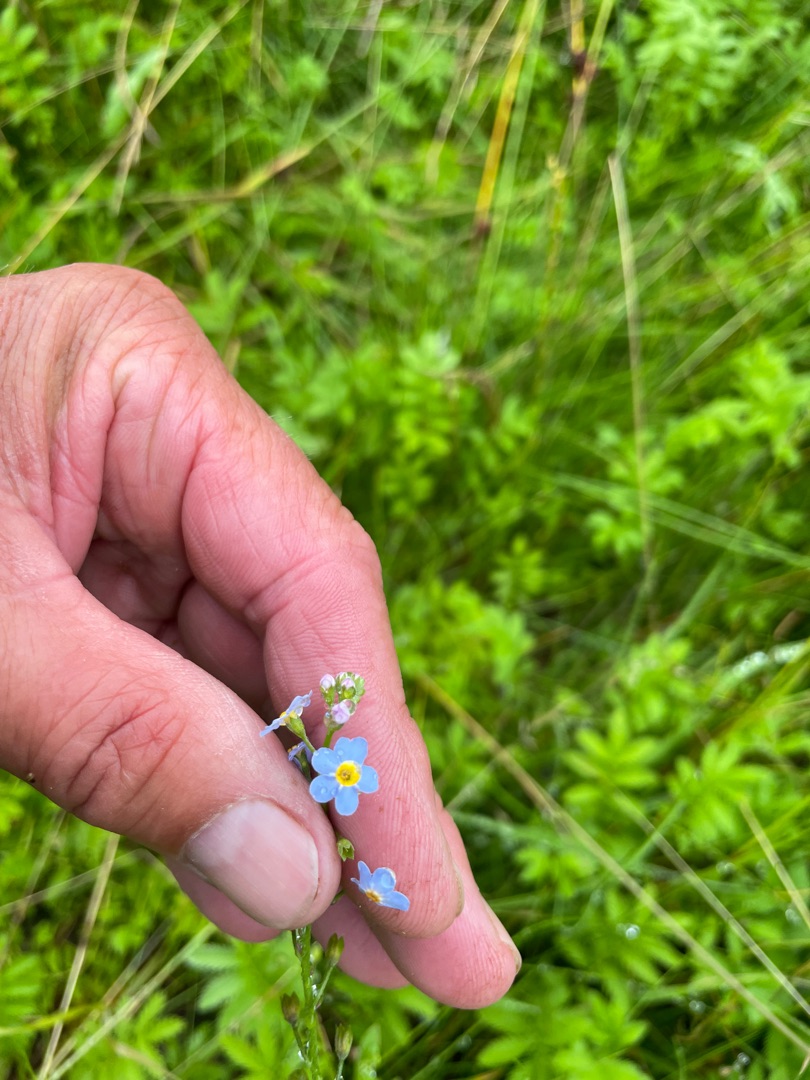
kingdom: Plantae
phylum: Tracheophyta
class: Magnoliopsida
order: Boraginales
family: Boraginaceae
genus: Myosotis
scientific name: Myosotis scorpioides
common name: Eng-forglemmigej
